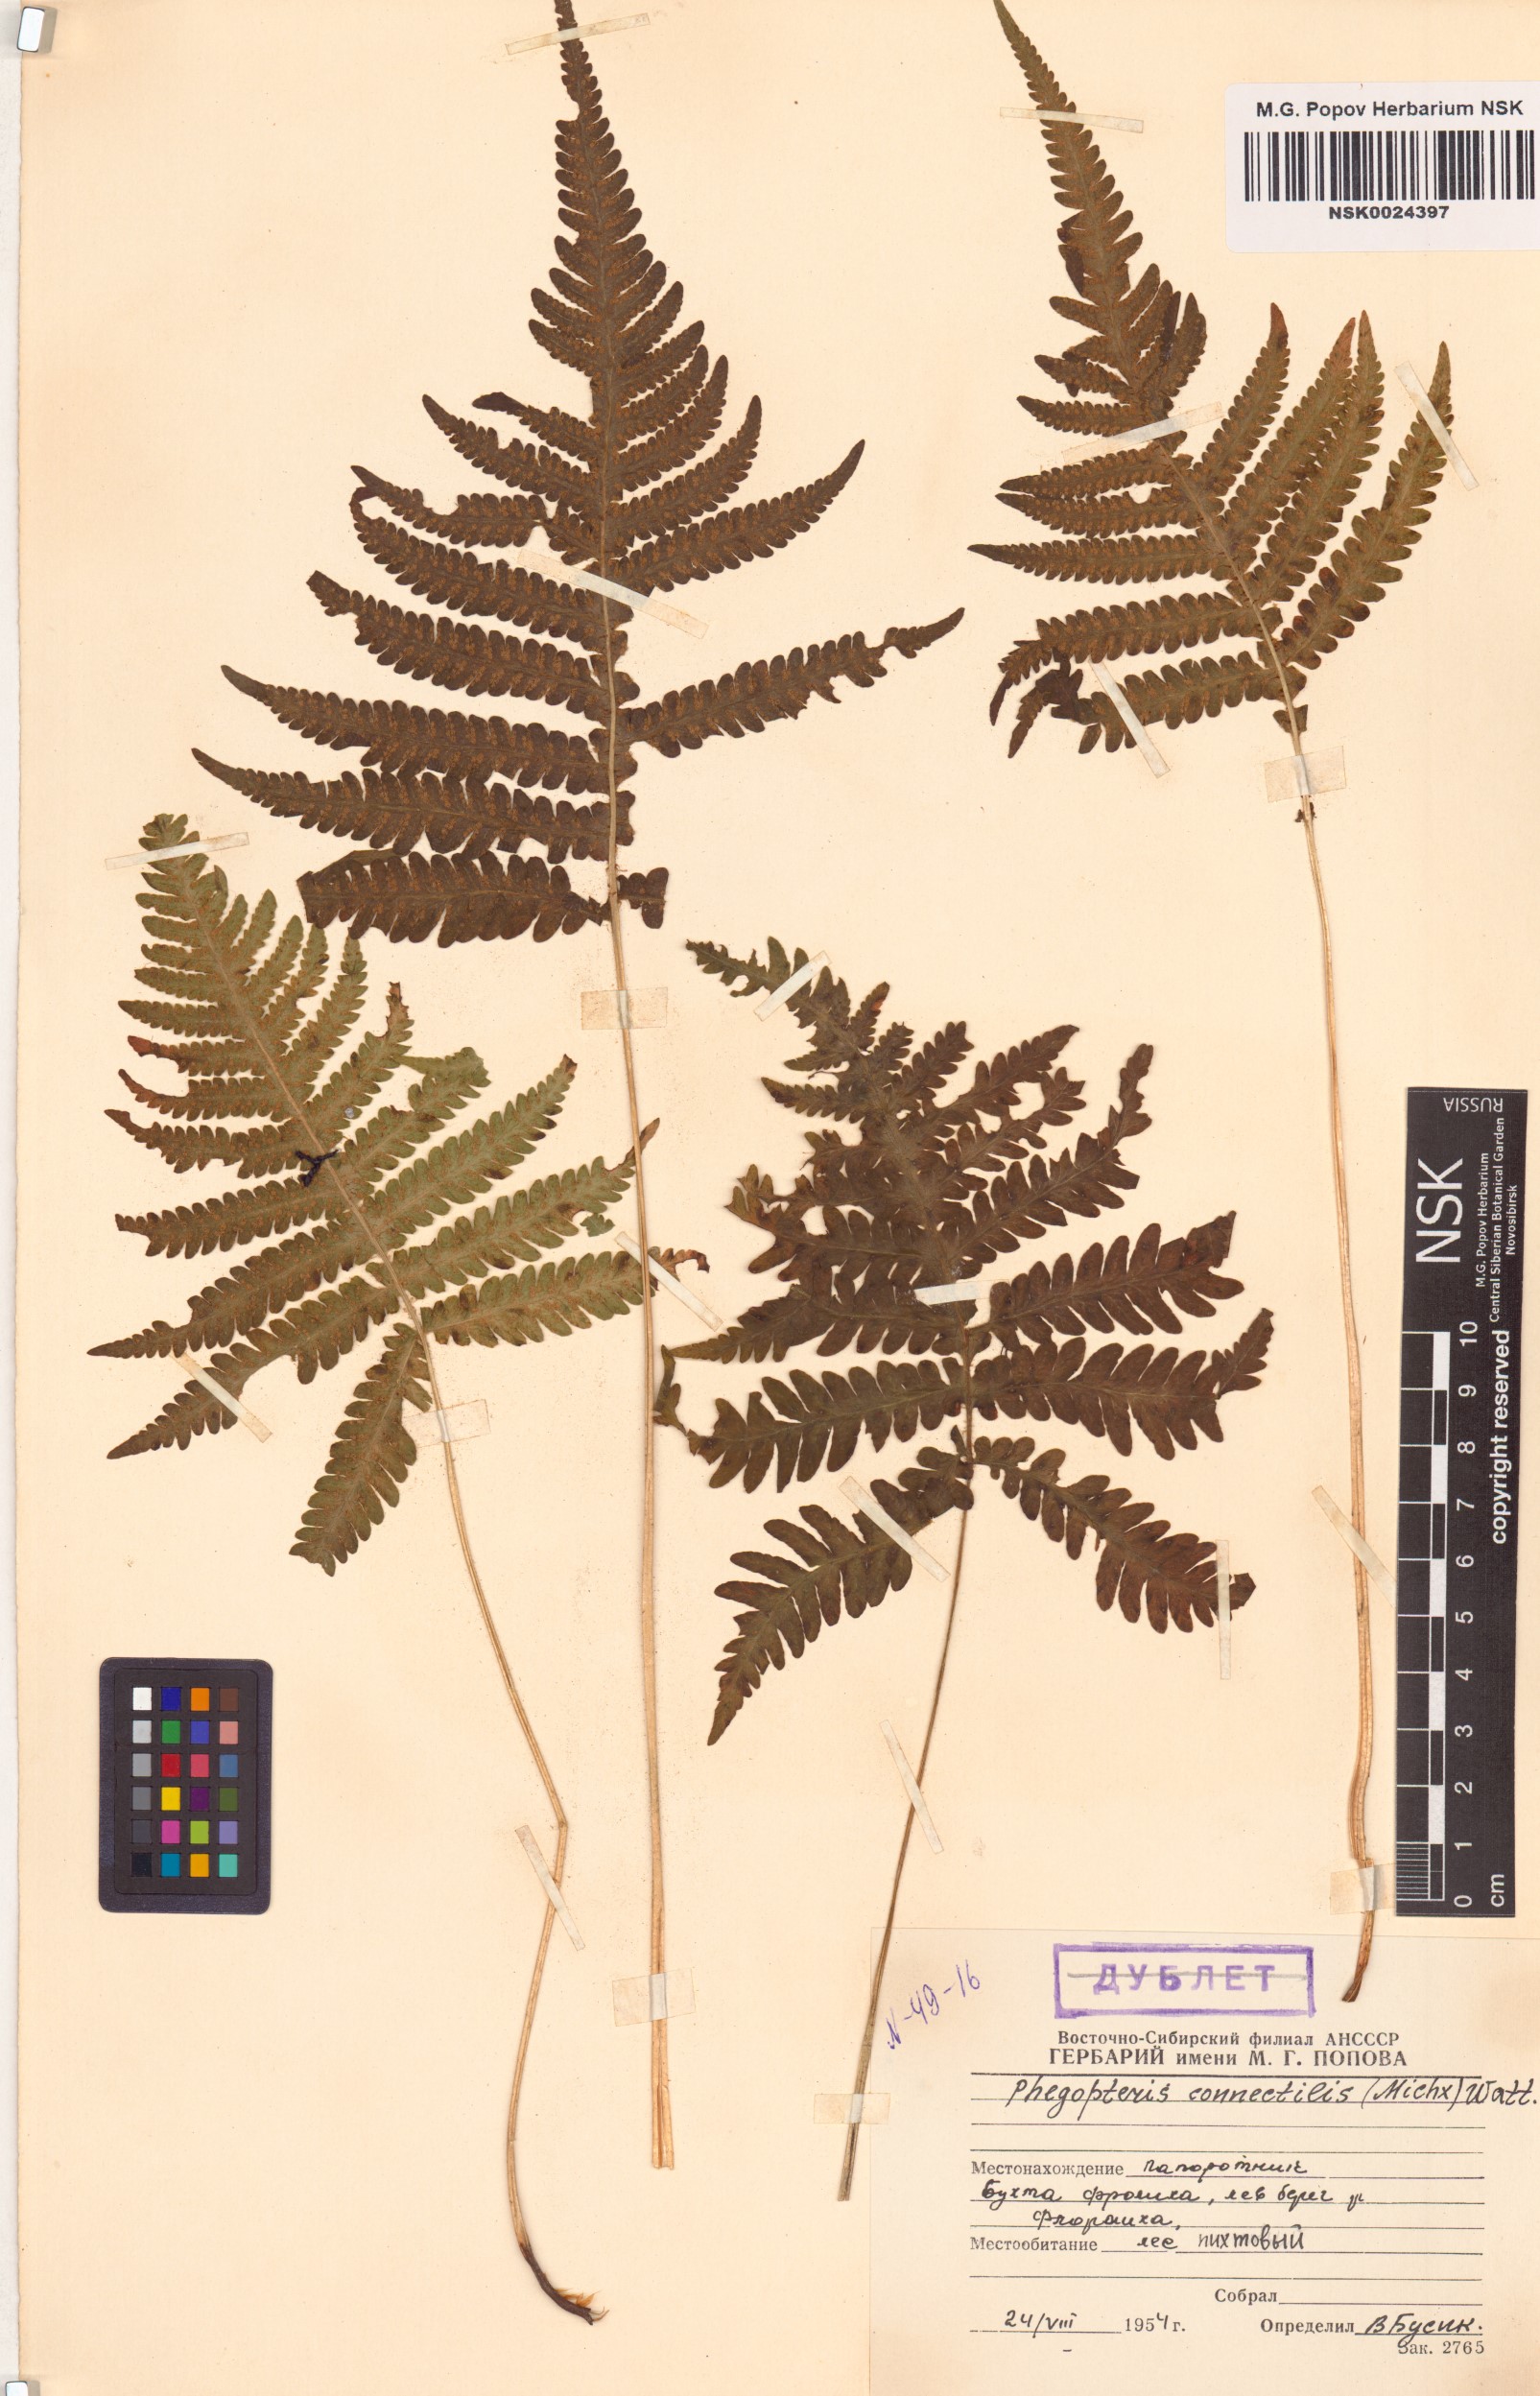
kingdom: Plantae
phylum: Tracheophyta
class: Polypodiopsida
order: Polypodiales
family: Thelypteridaceae
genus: Phegopteris
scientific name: Phegopteris connectilis
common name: Beech fern
